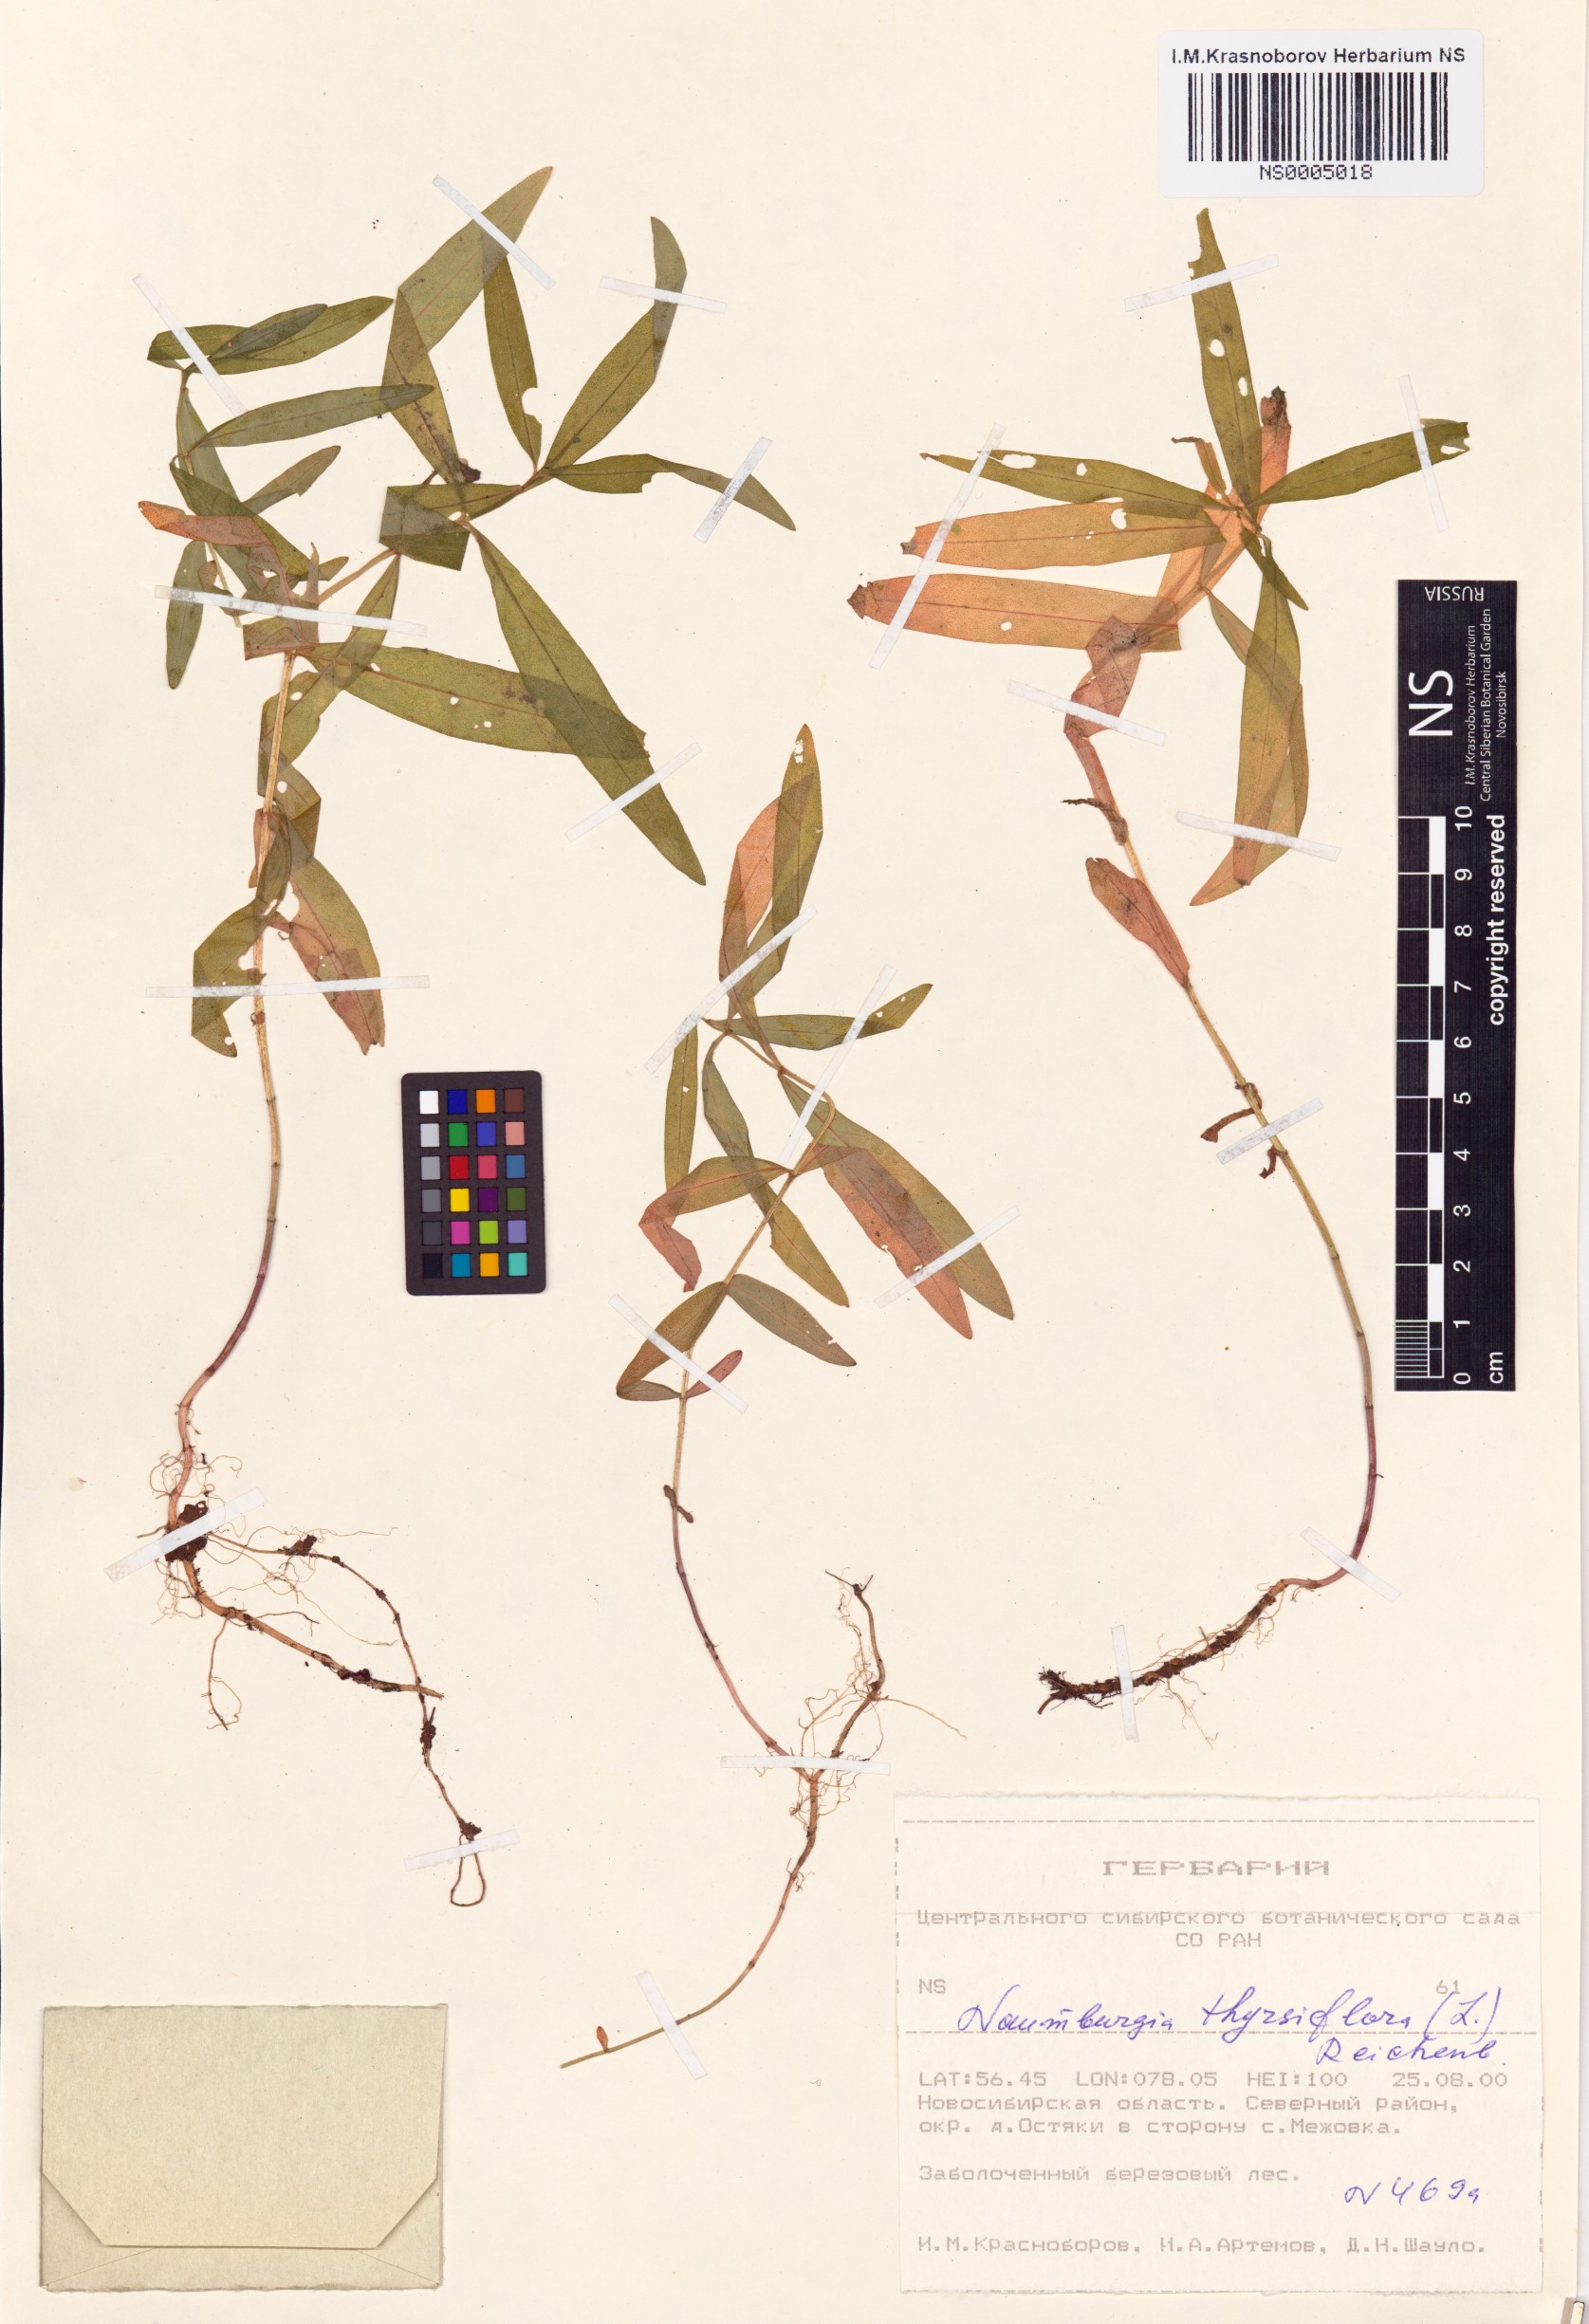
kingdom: Plantae
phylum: Tracheophyta
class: Magnoliopsida
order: Ericales
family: Primulaceae
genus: Lysimachia
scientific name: Lysimachia thyrsiflora
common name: Tufted loosestrife
